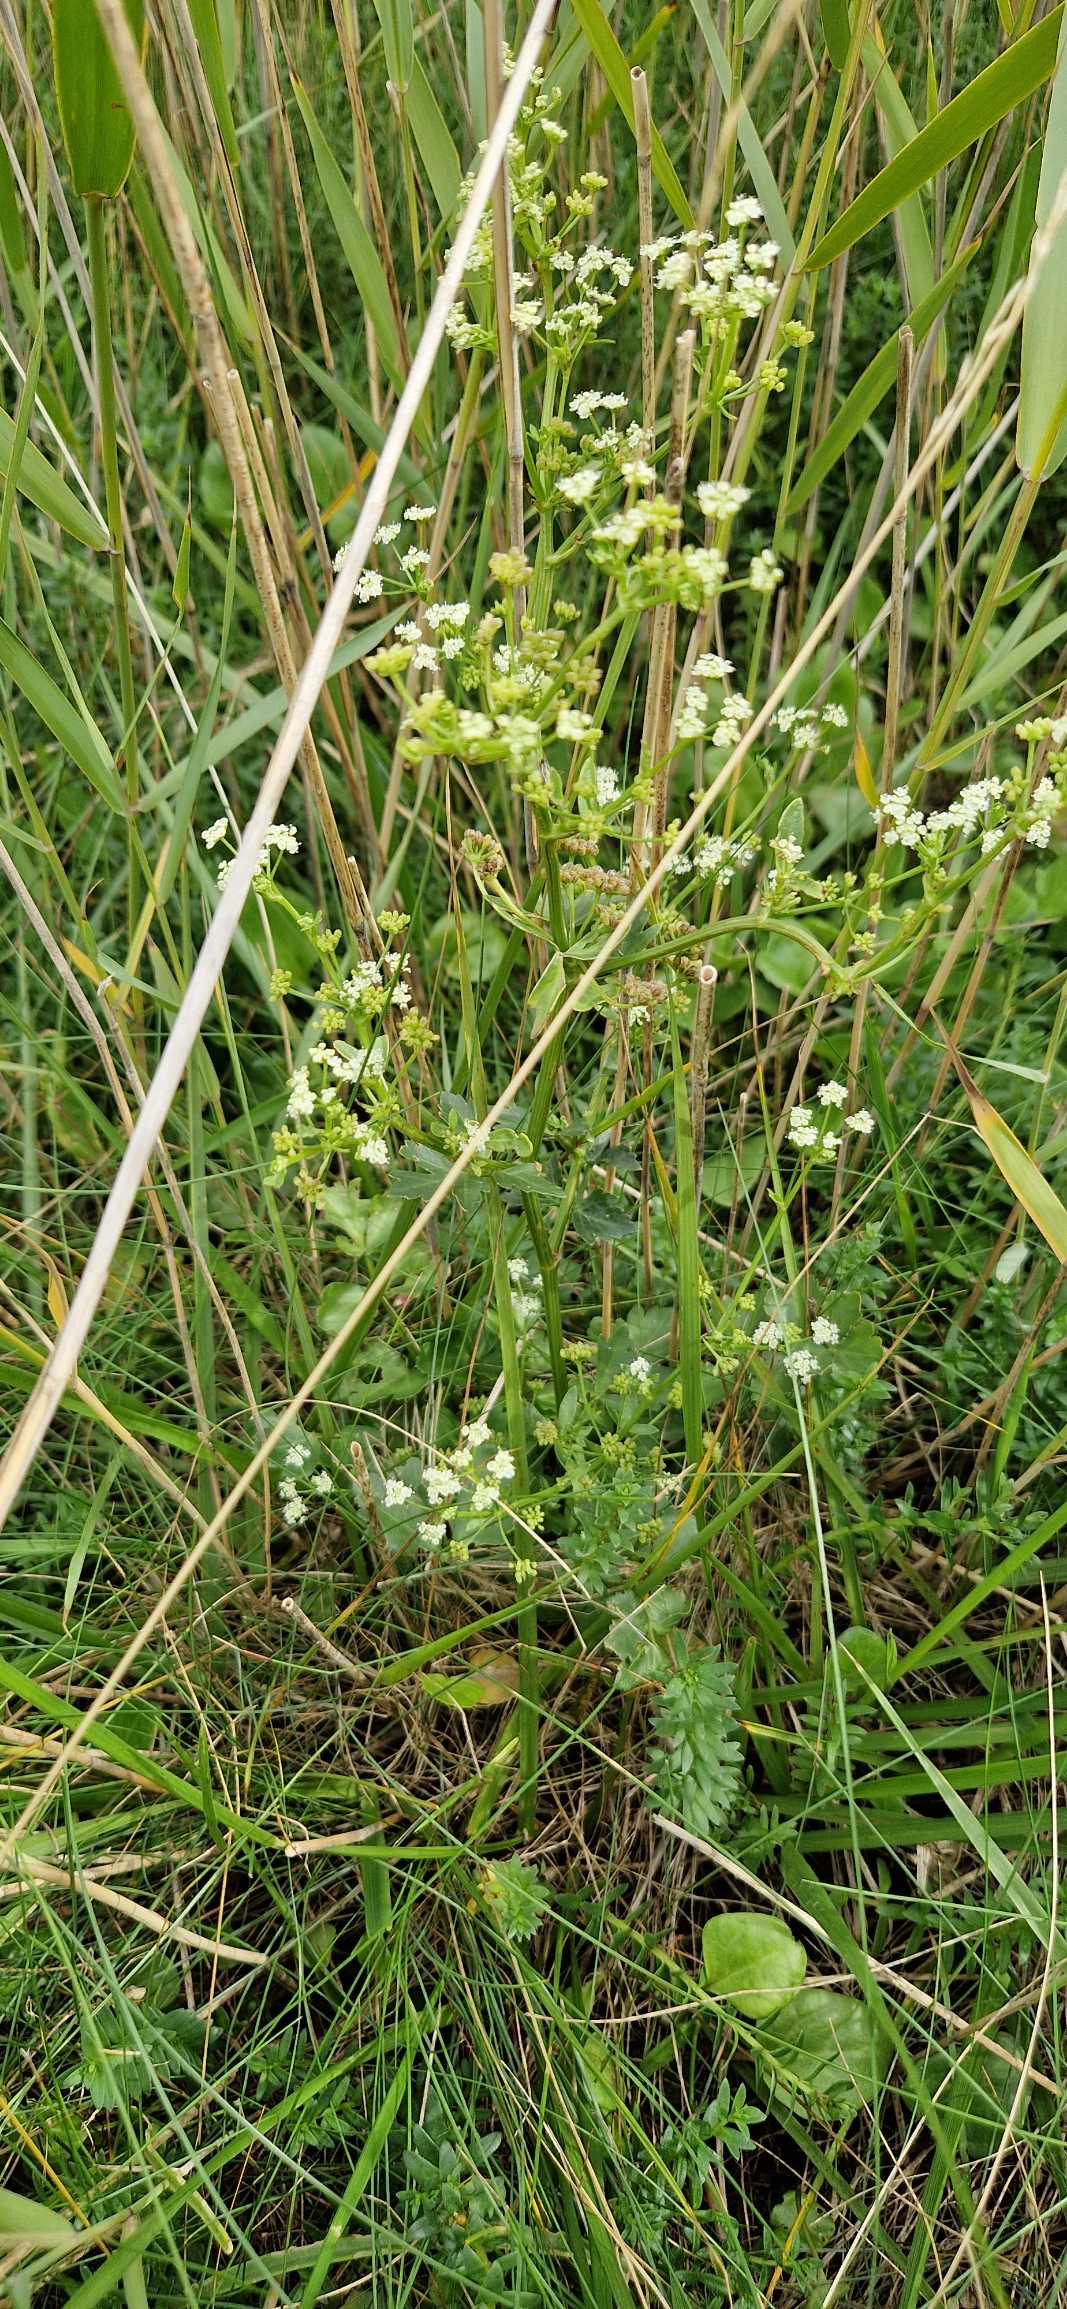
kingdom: Plantae
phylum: Tracheophyta
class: Magnoliopsida
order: Apiales
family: Apiaceae
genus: Apium
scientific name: Apium graveolens
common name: Vild selleri
